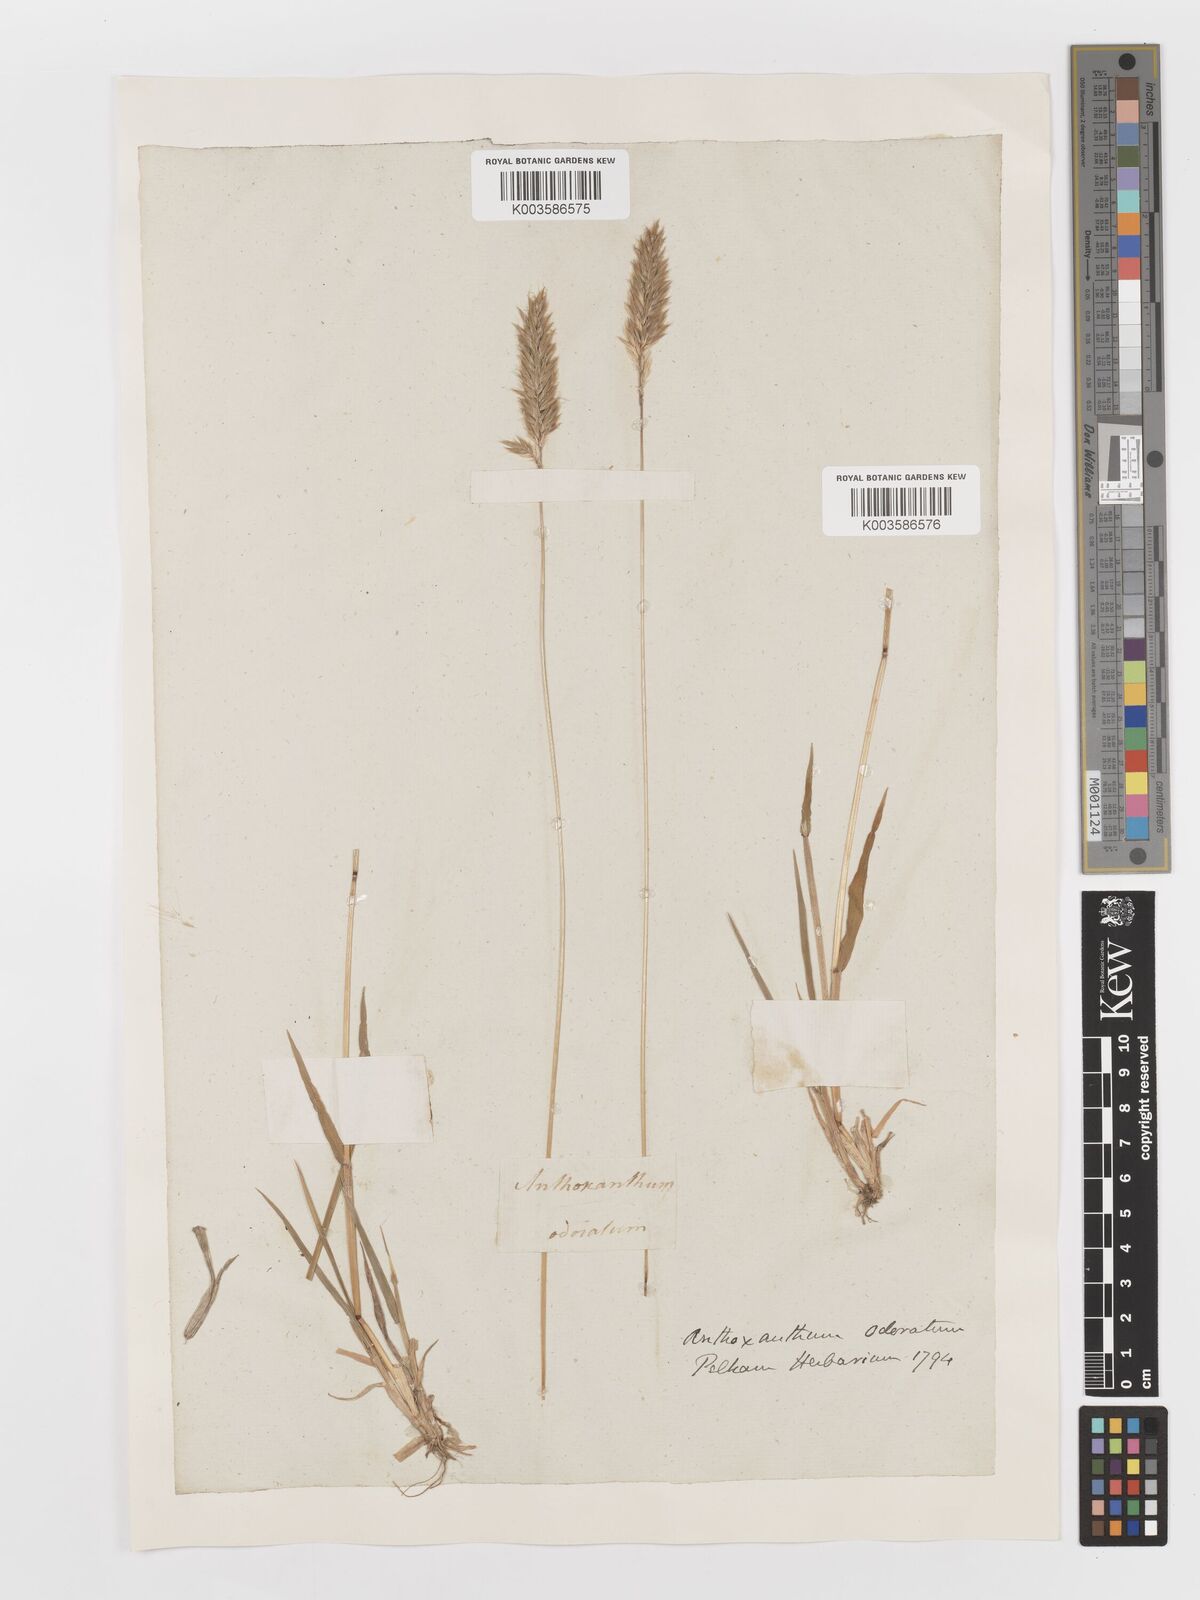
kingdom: Plantae
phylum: Tracheophyta
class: Liliopsida
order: Poales
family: Poaceae
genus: Anthoxanthum
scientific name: Anthoxanthum odoratum
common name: Sweet vernalgrass
